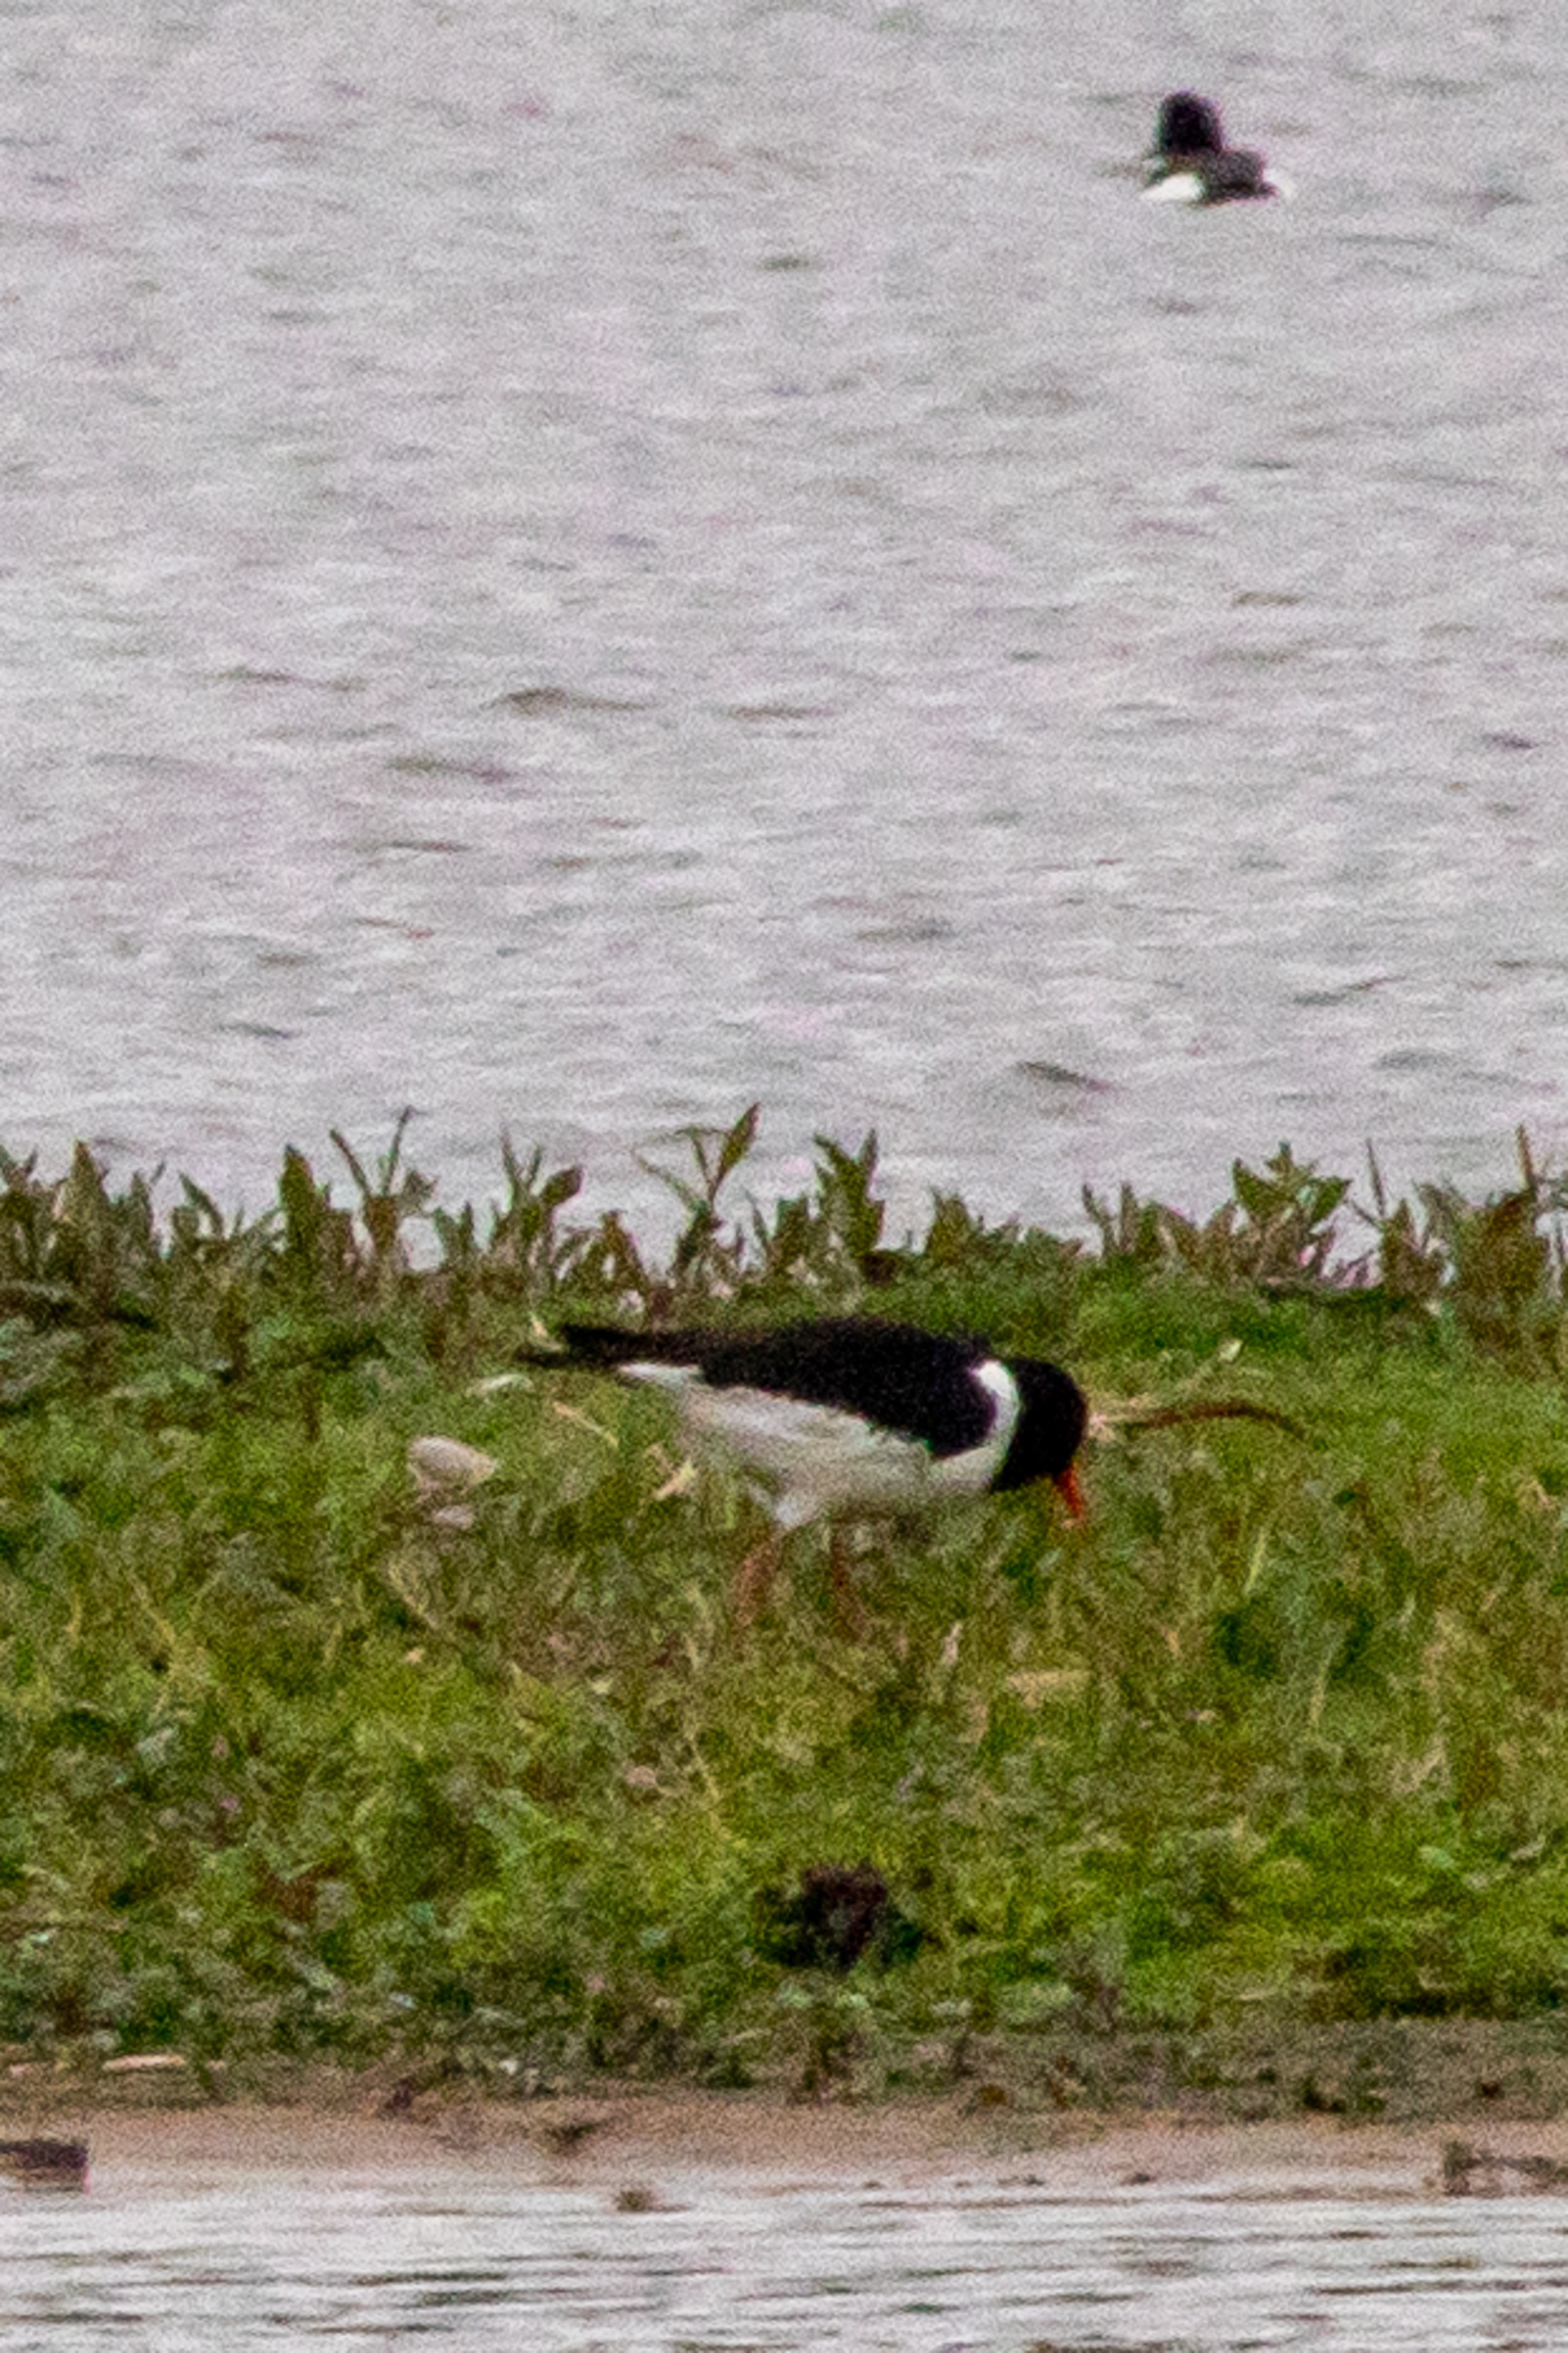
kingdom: Animalia
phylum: Chordata
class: Aves
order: Charadriiformes
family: Haematopodidae
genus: Haematopus
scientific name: Haematopus ostralegus
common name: Strandskade
